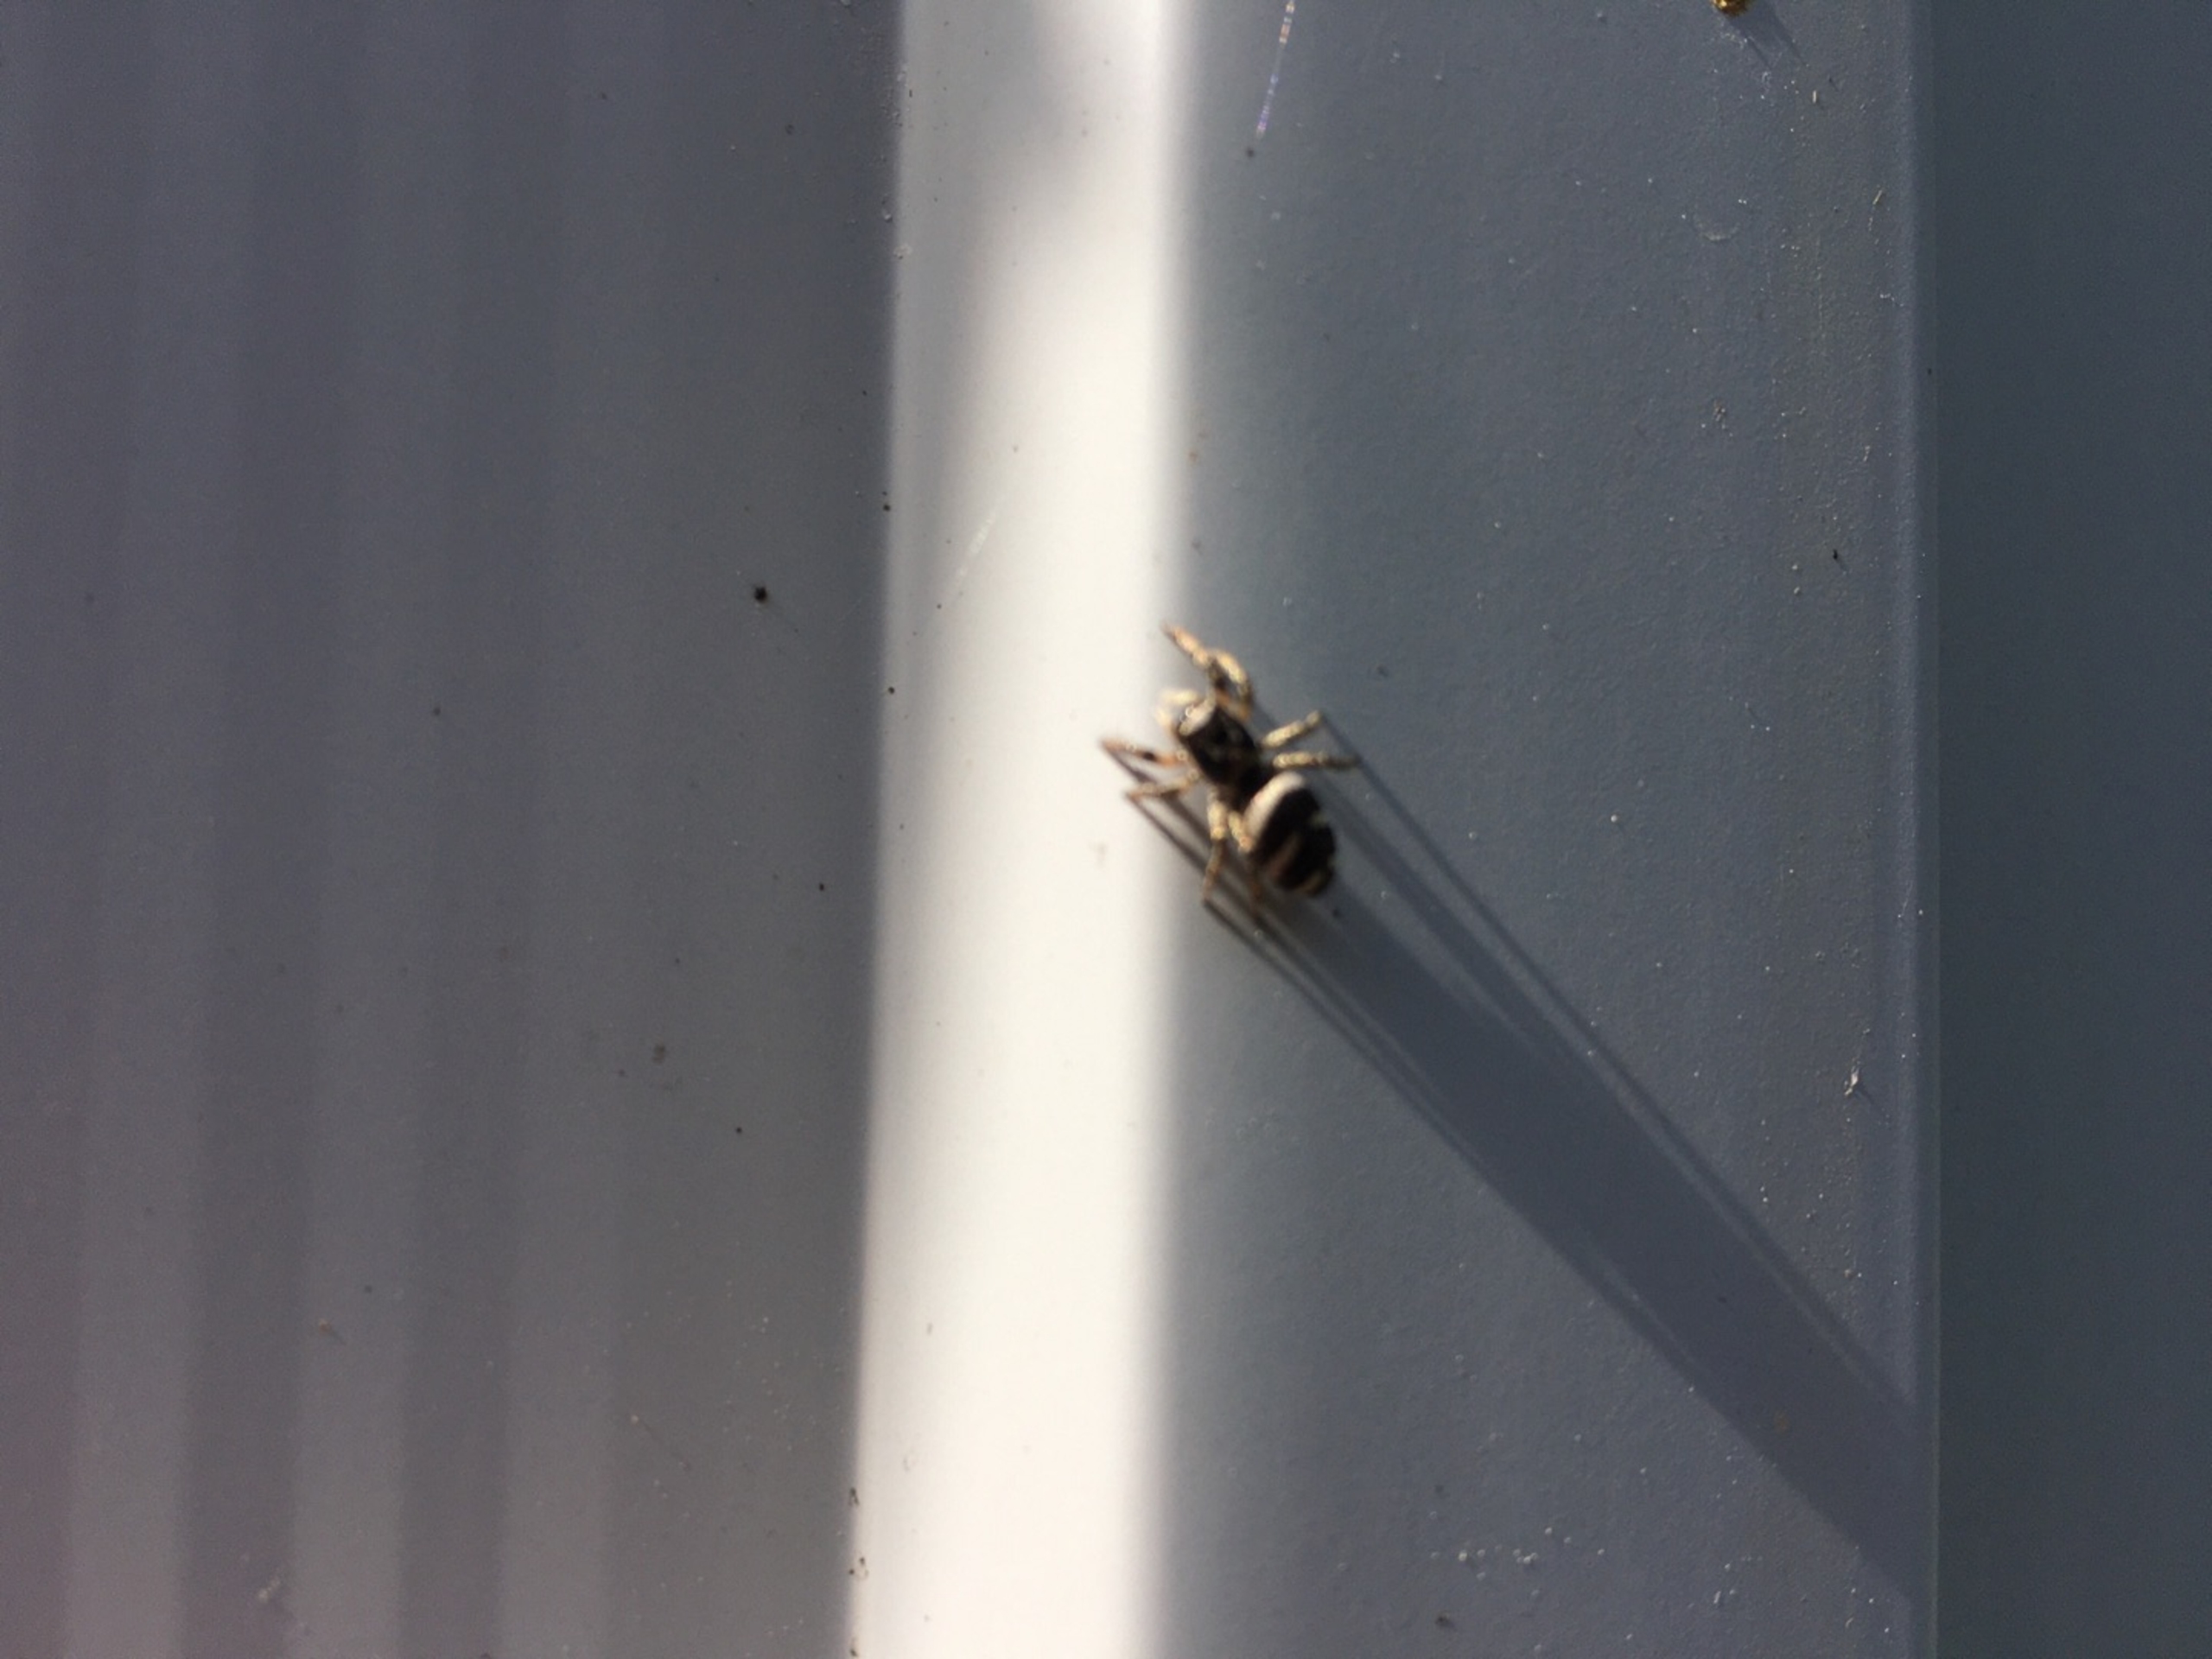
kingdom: Animalia
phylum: Arthropoda
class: Arachnida
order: Araneae
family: Salticidae
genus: Salticus
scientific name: Salticus scenicus
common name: Almindelig zebraedderkop
